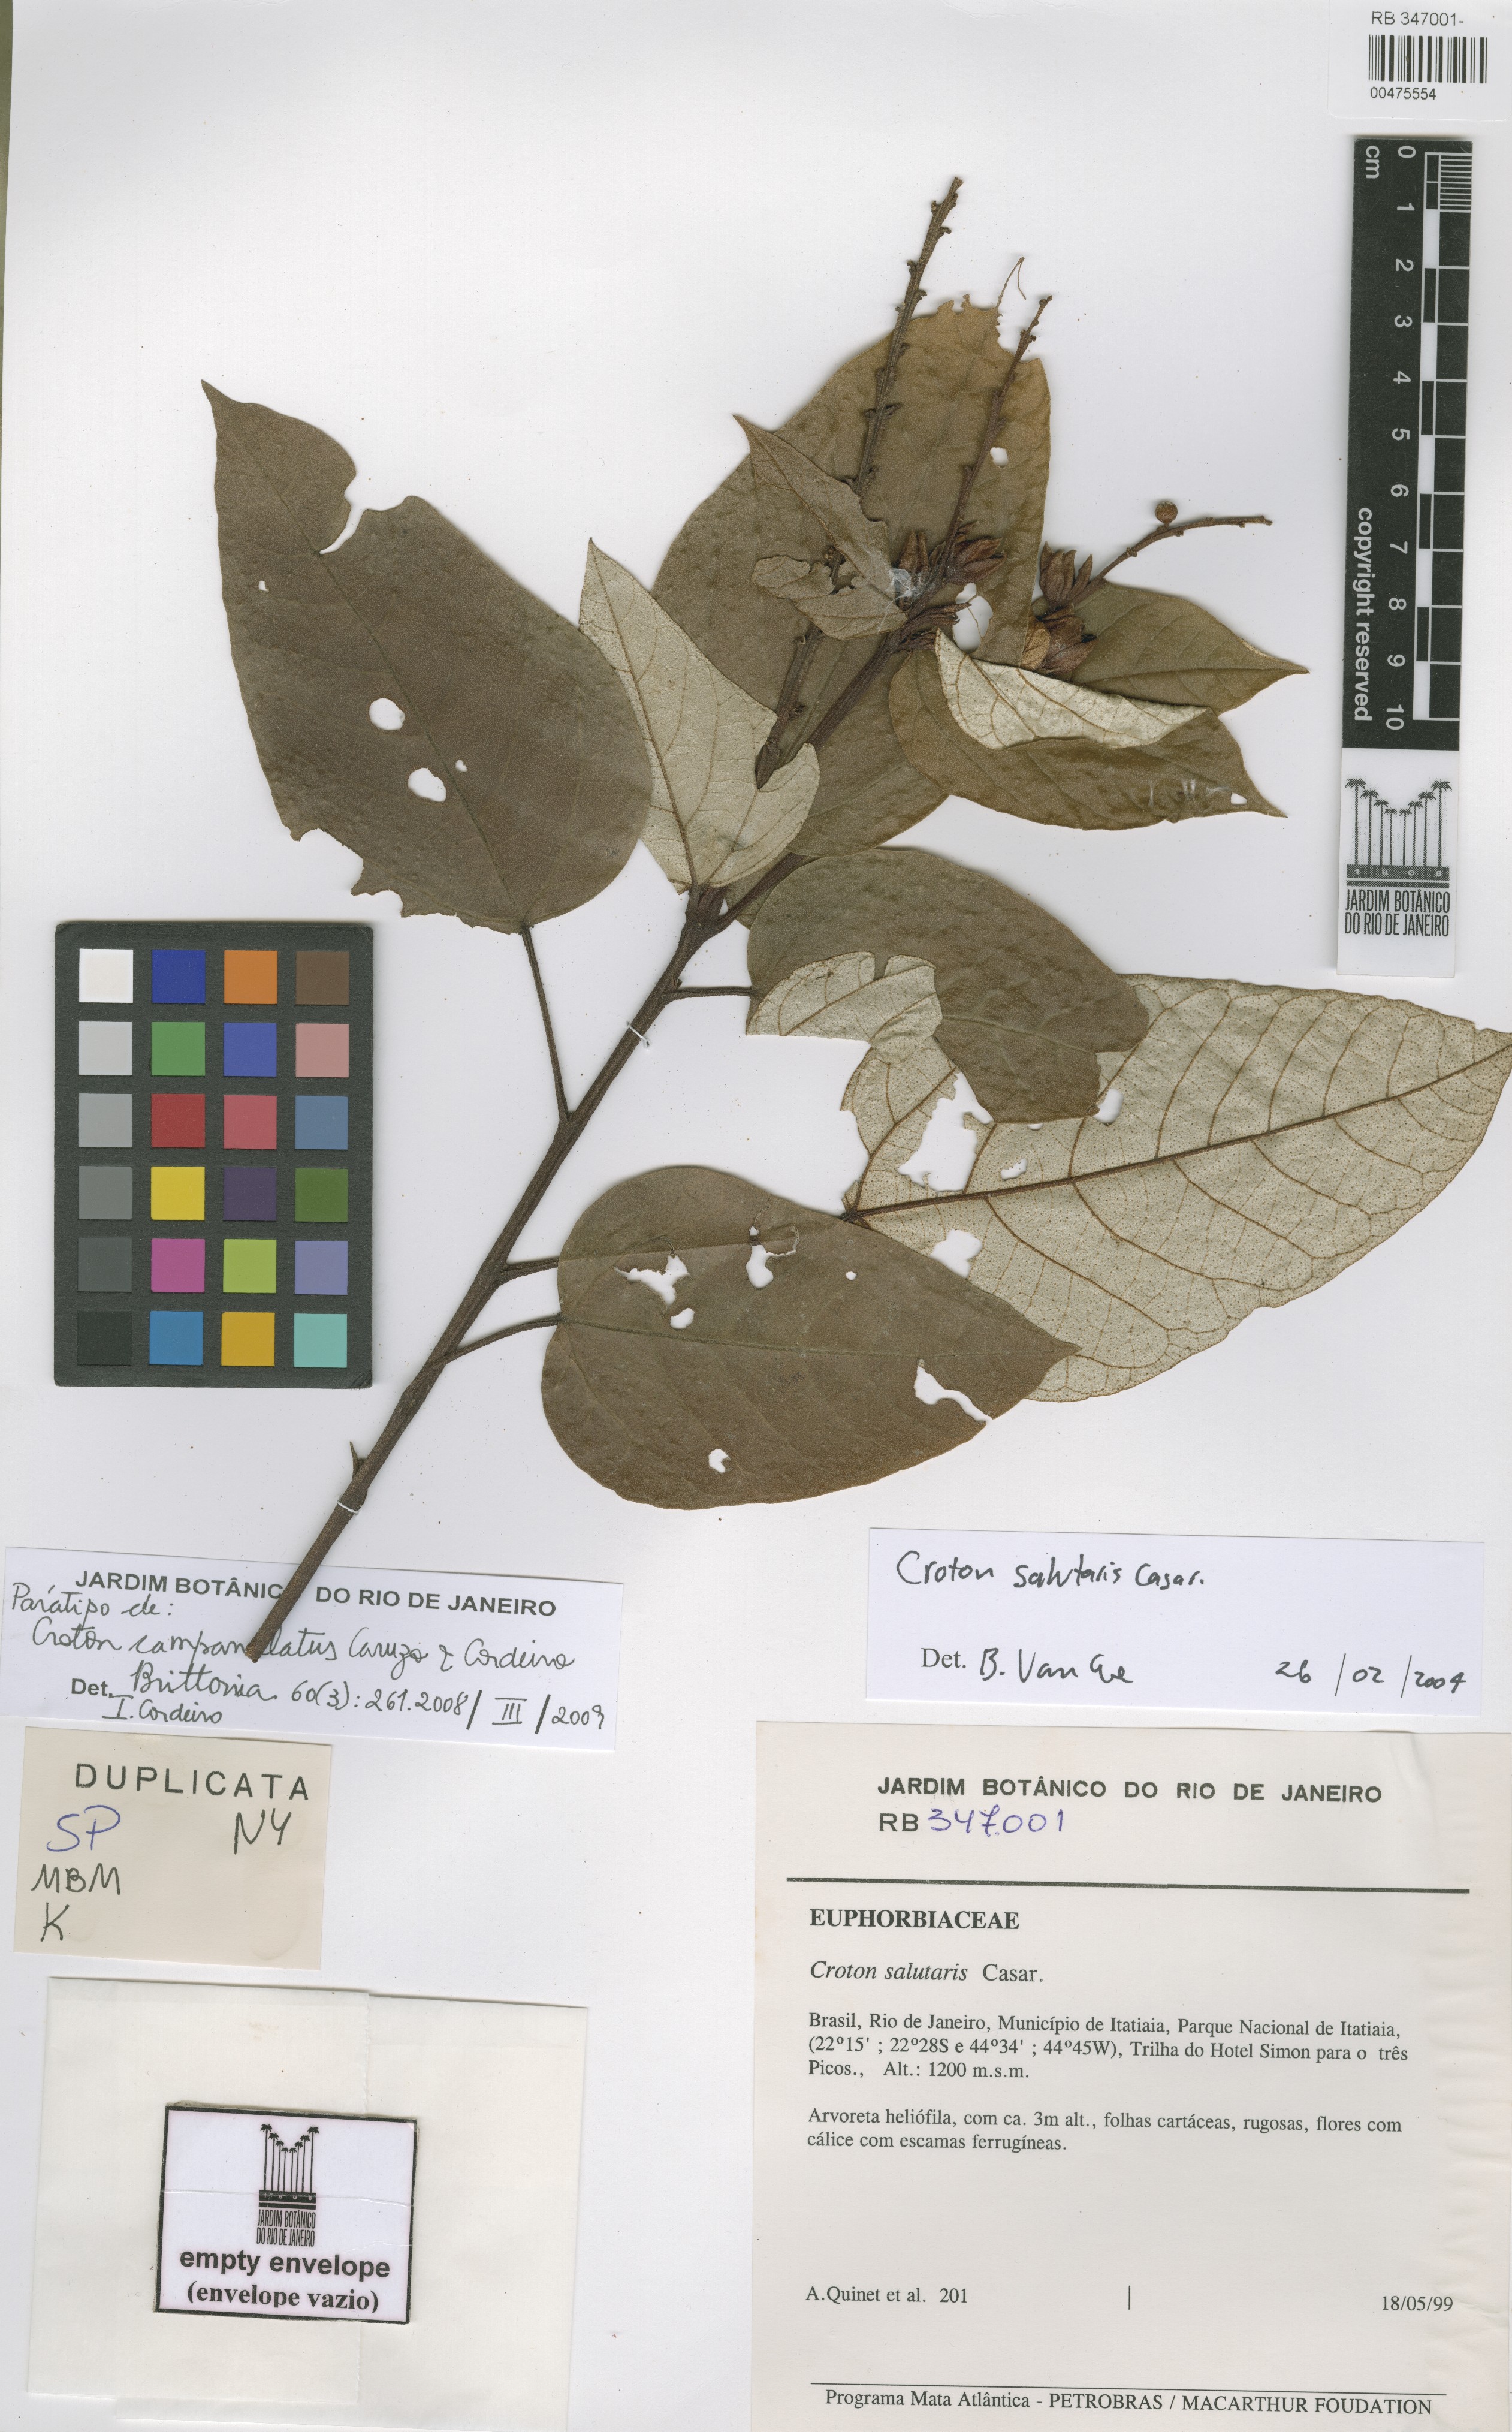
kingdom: Plantae
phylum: Tracheophyta
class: Magnoliopsida
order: Malpighiales
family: Euphorbiaceae
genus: Croton
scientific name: Croton campanulatus
